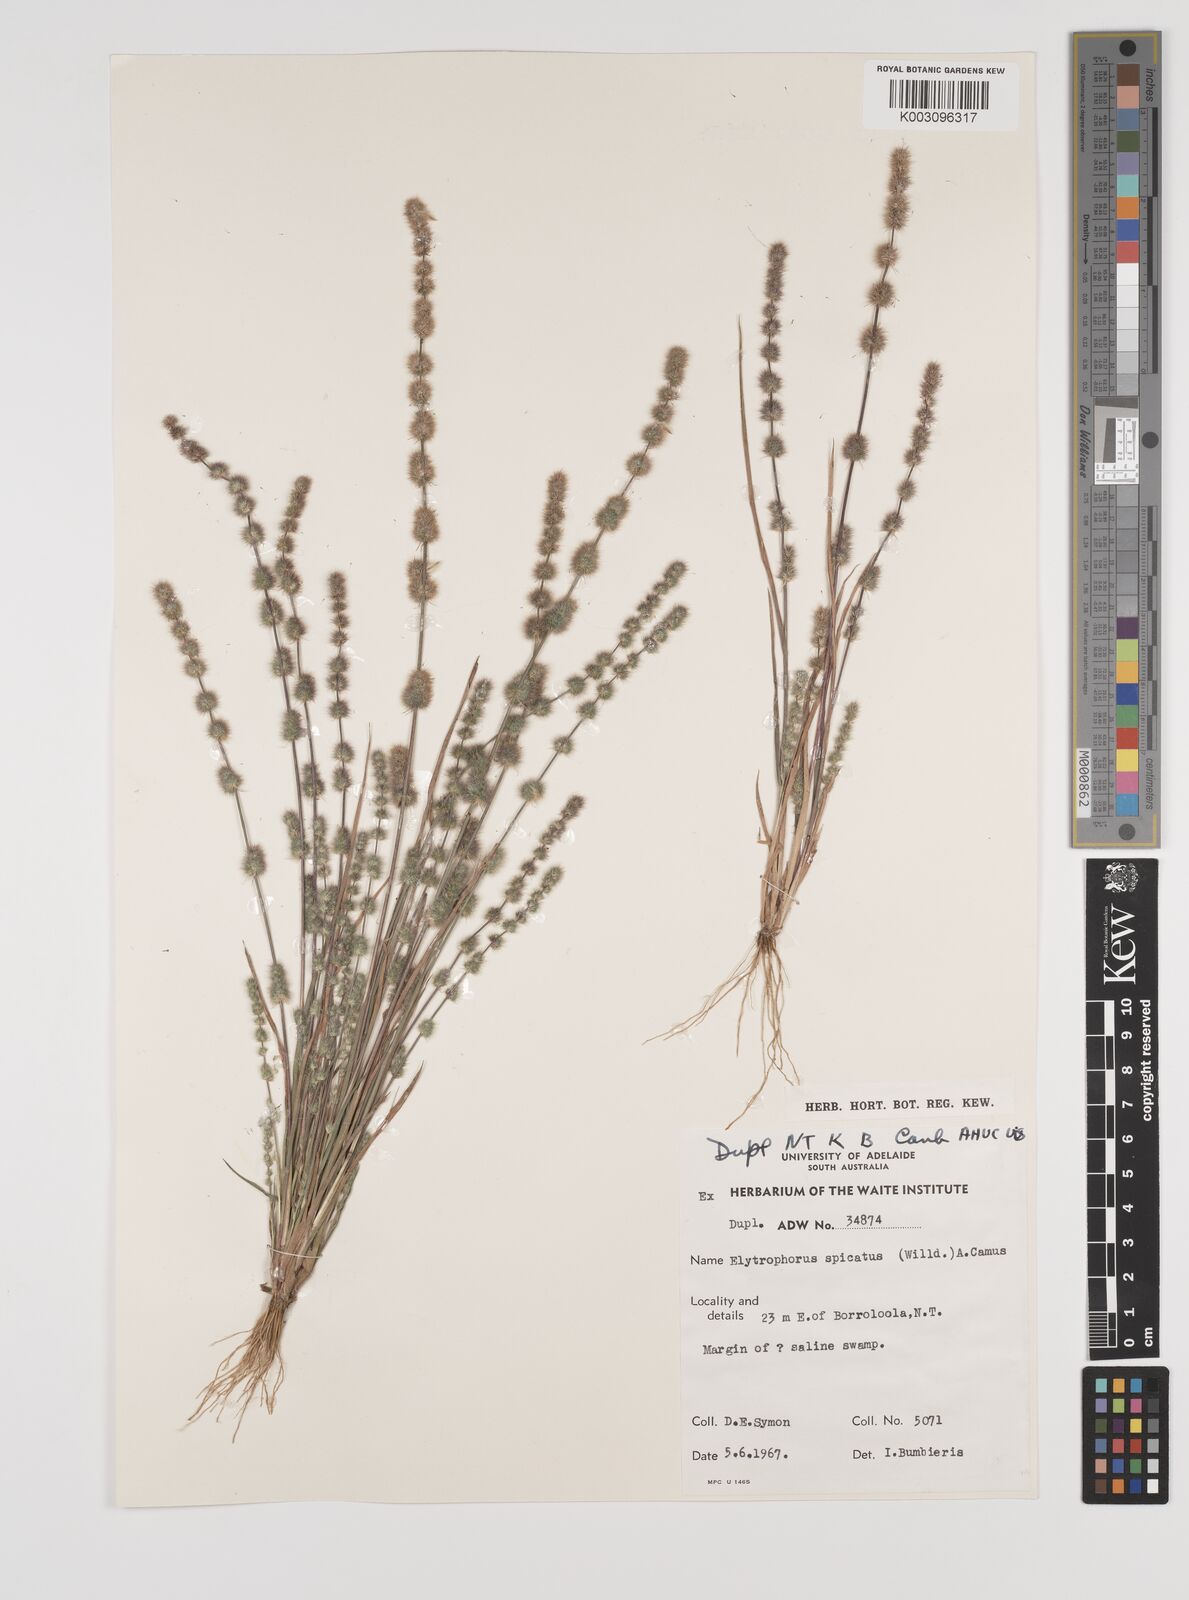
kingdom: Plantae
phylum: Tracheophyta
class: Liliopsida
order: Poales
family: Poaceae
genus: Elytrophorus
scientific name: Elytrophorus spicatus
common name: Spike grass
